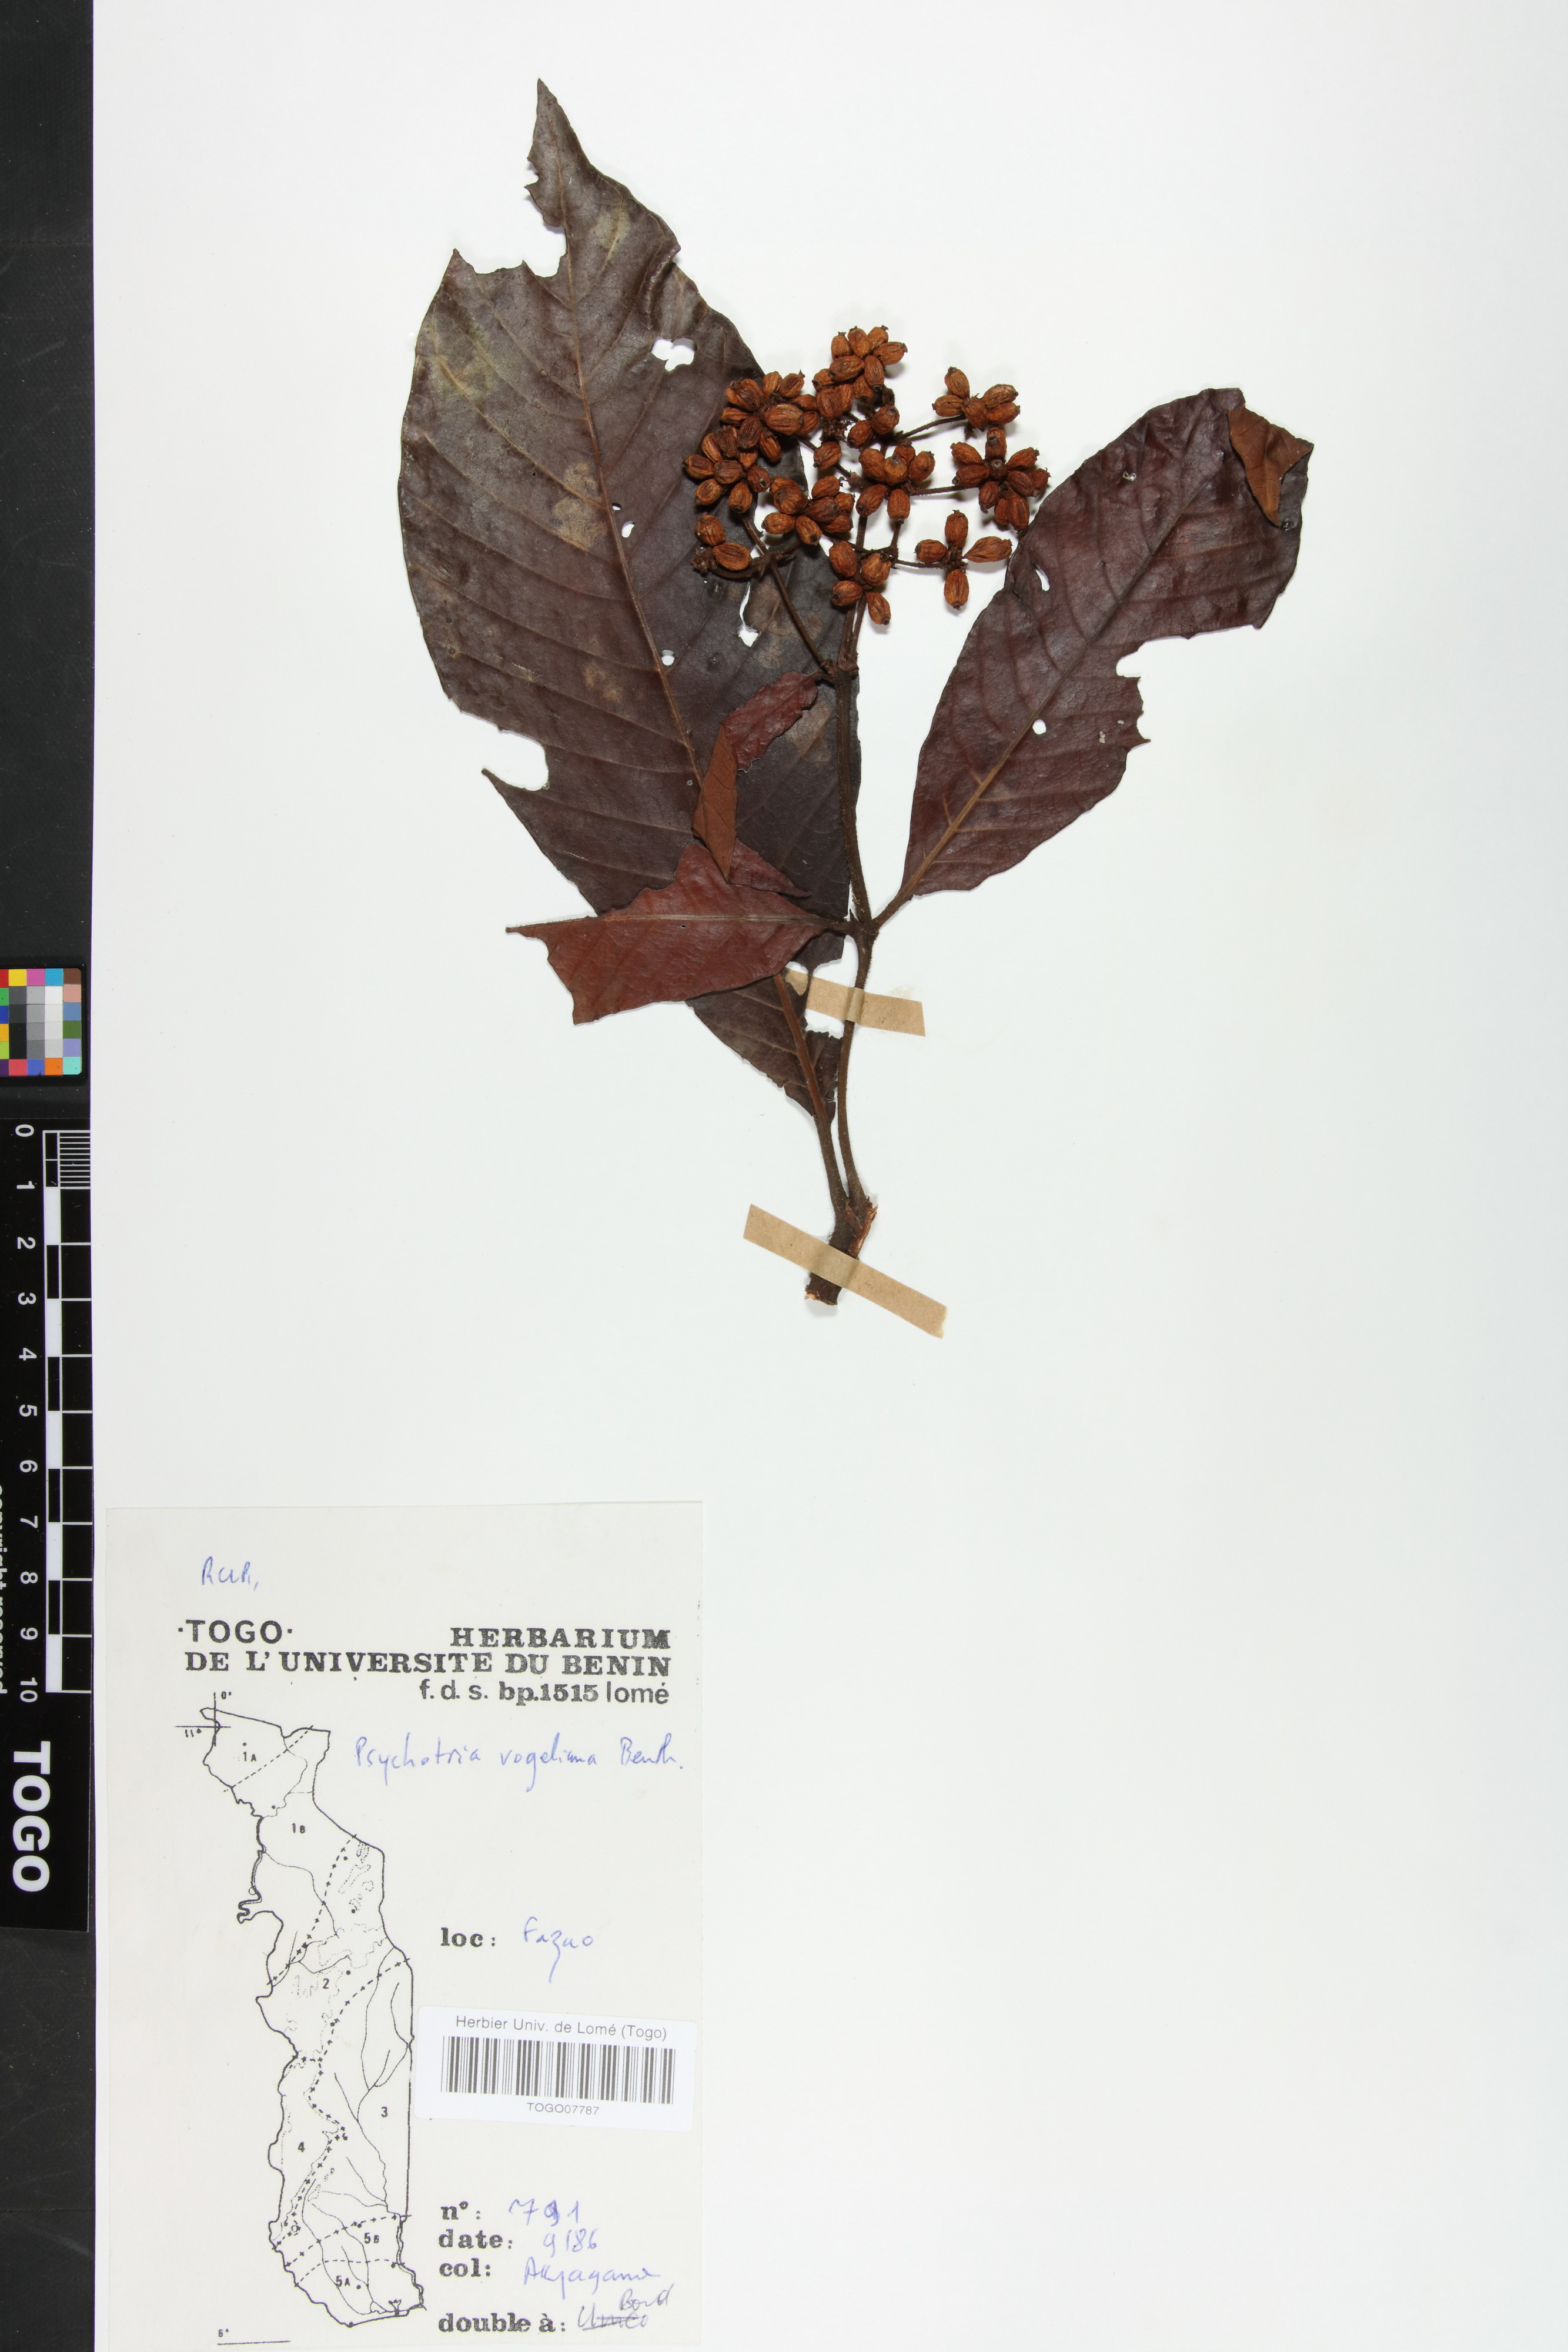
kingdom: Plantae
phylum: Tracheophyta
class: Magnoliopsida
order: Gentianales
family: Rubiaceae
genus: Psychotria
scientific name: Psychotria vogeliana
